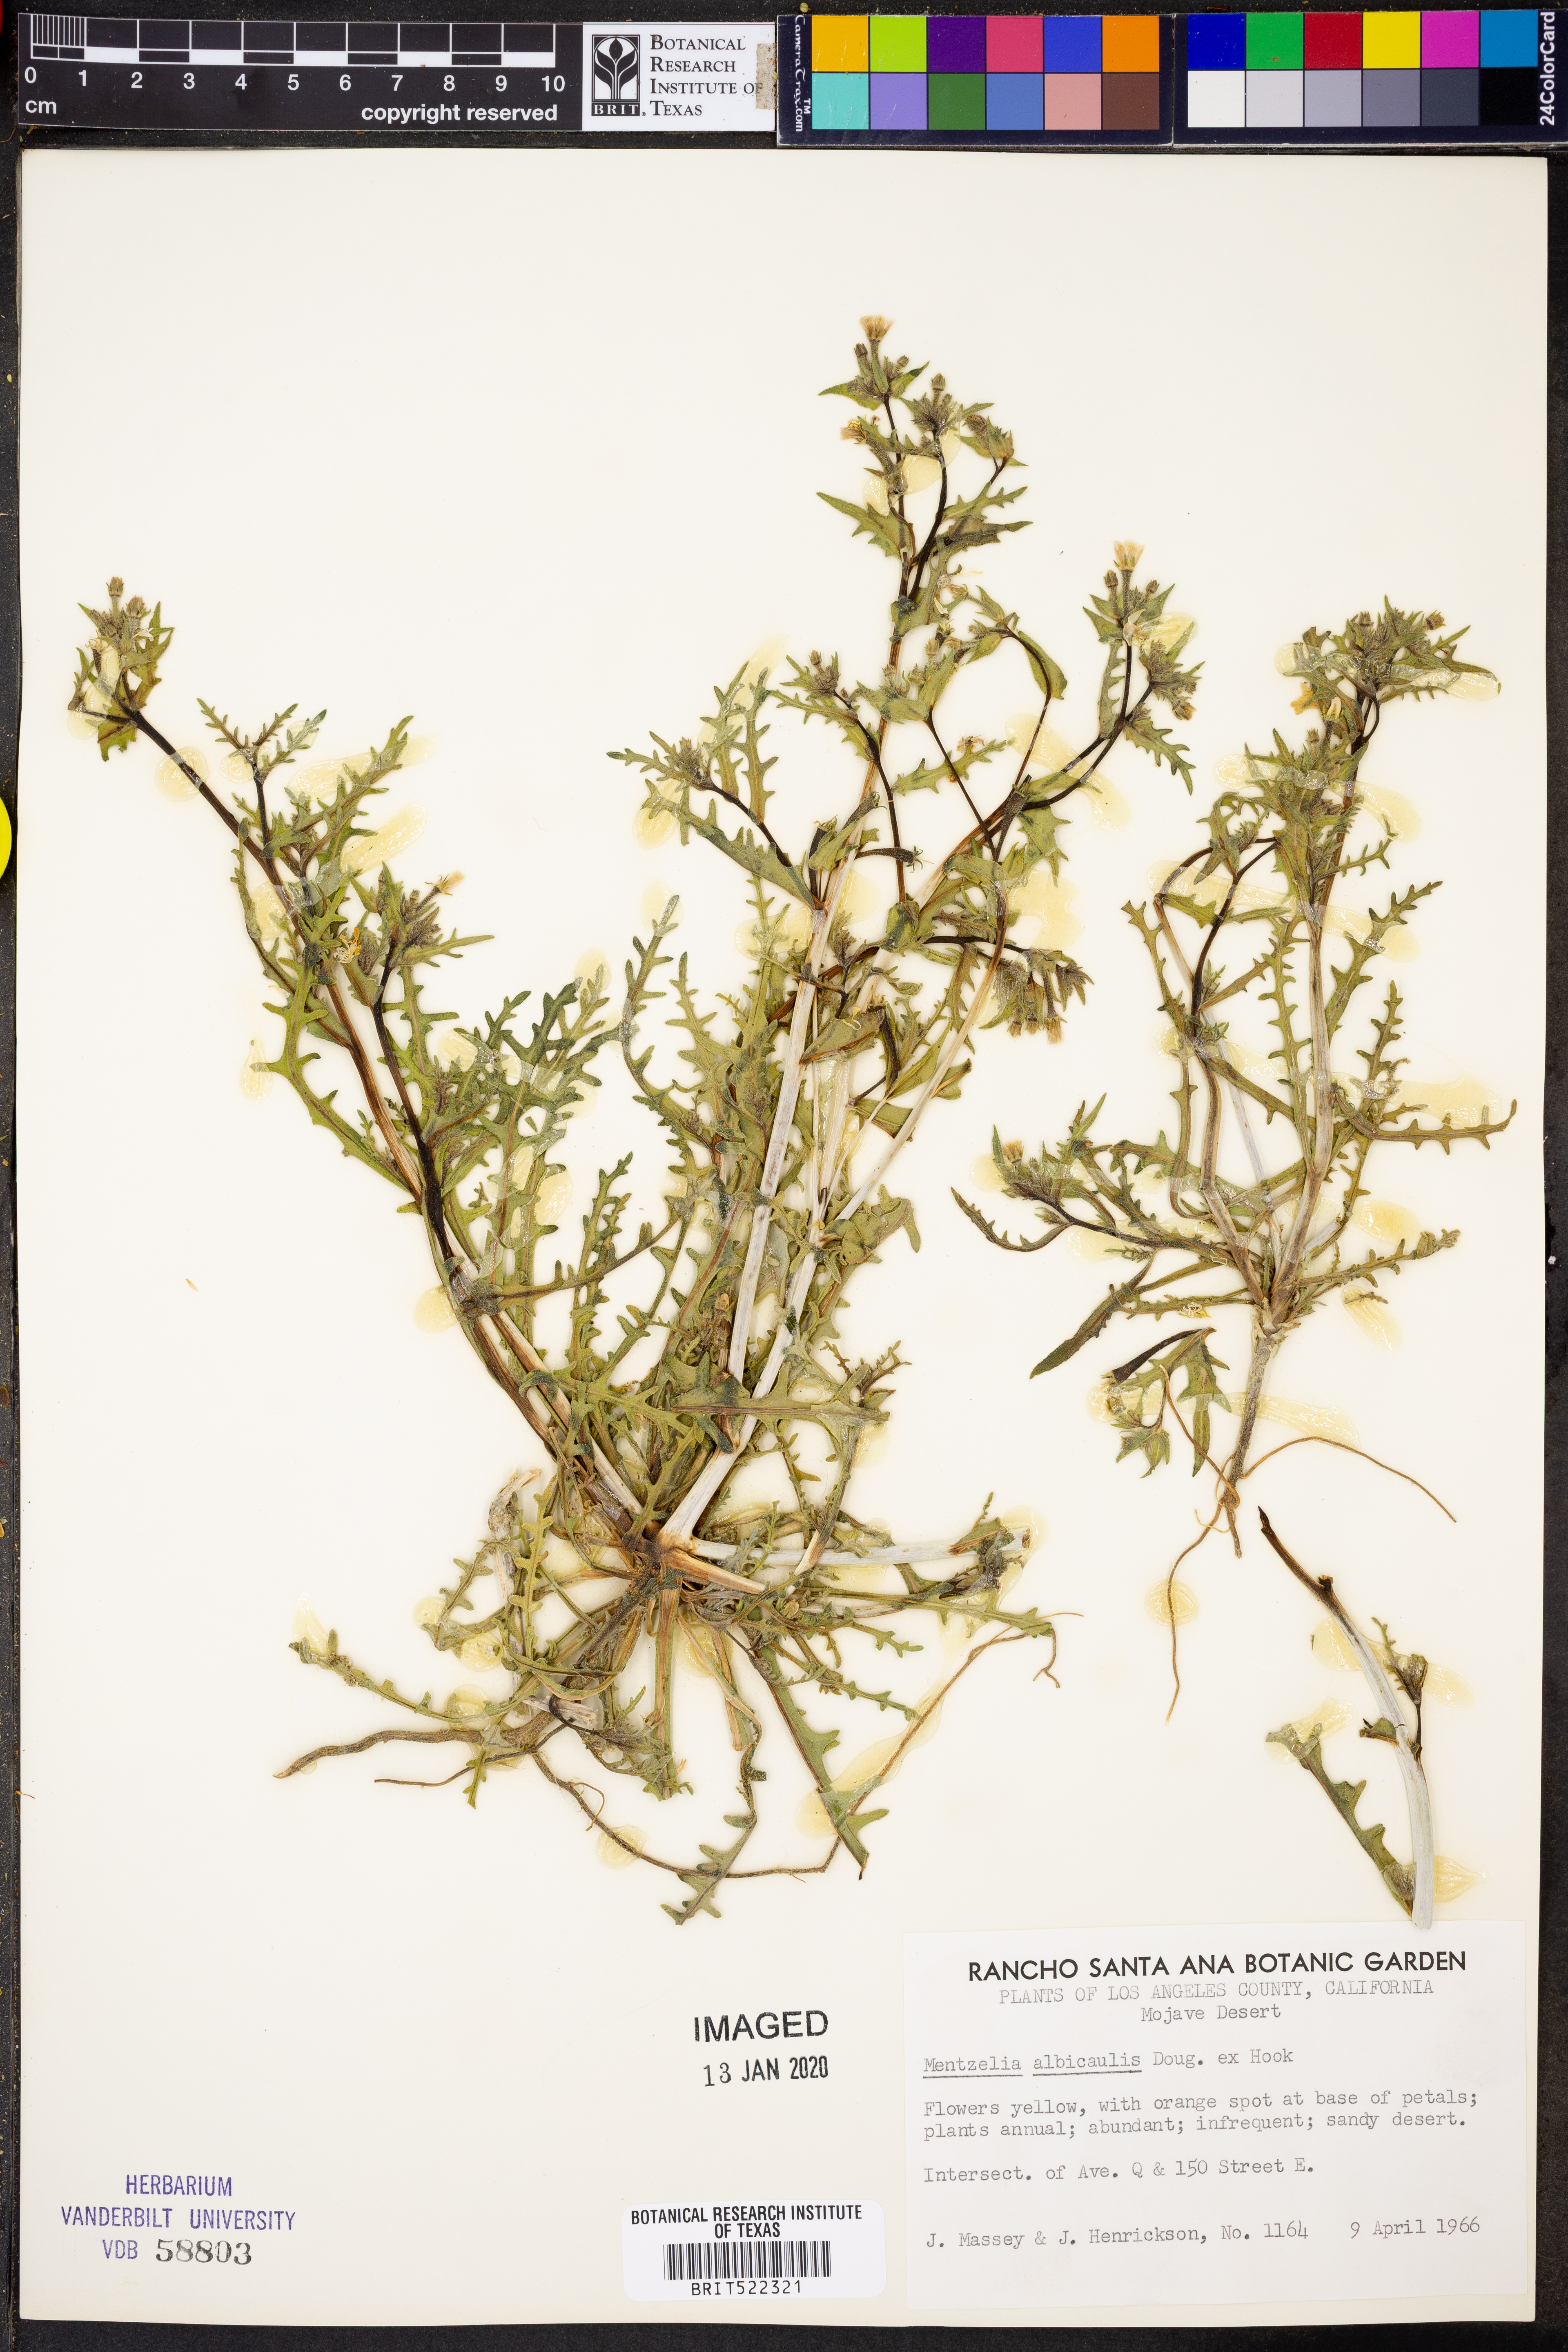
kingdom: Plantae
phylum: Tracheophyta
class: Magnoliopsida
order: Cornales
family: Loasaceae
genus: Mentzelia
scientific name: Mentzelia albicaulis
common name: White-stem blazingstar
